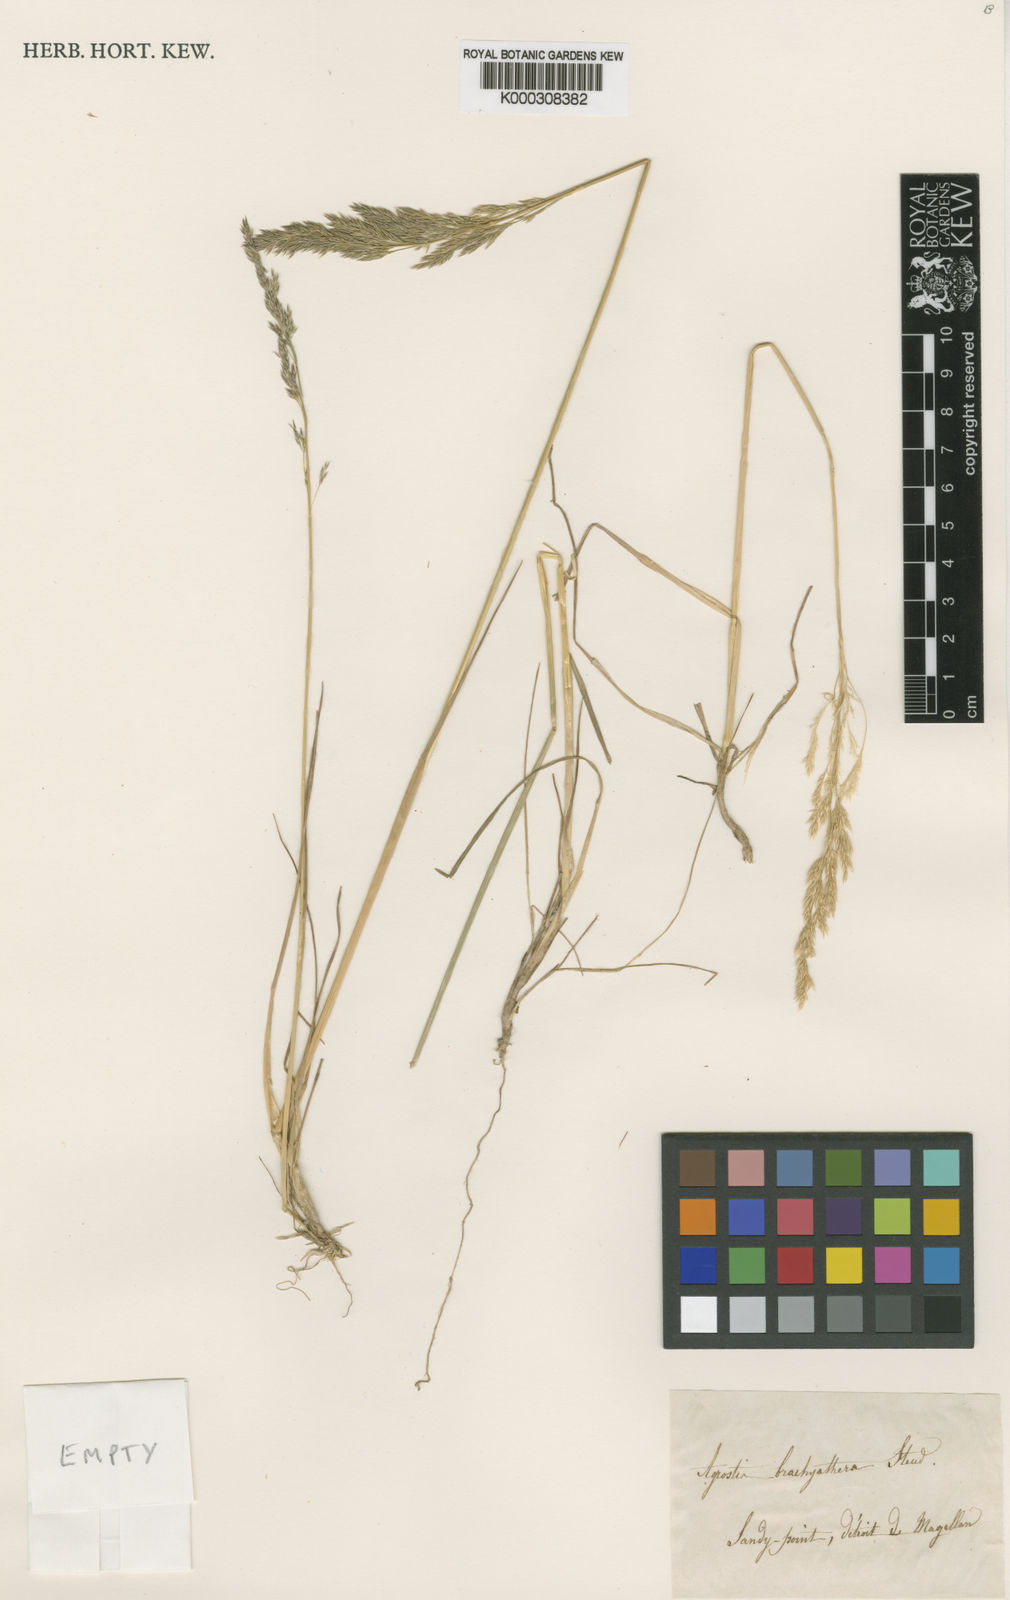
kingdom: Plantae
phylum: Tracheophyta
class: Liliopsida
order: Poales
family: Poaceae
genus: Agrostis
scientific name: Agrostis brachyathera
